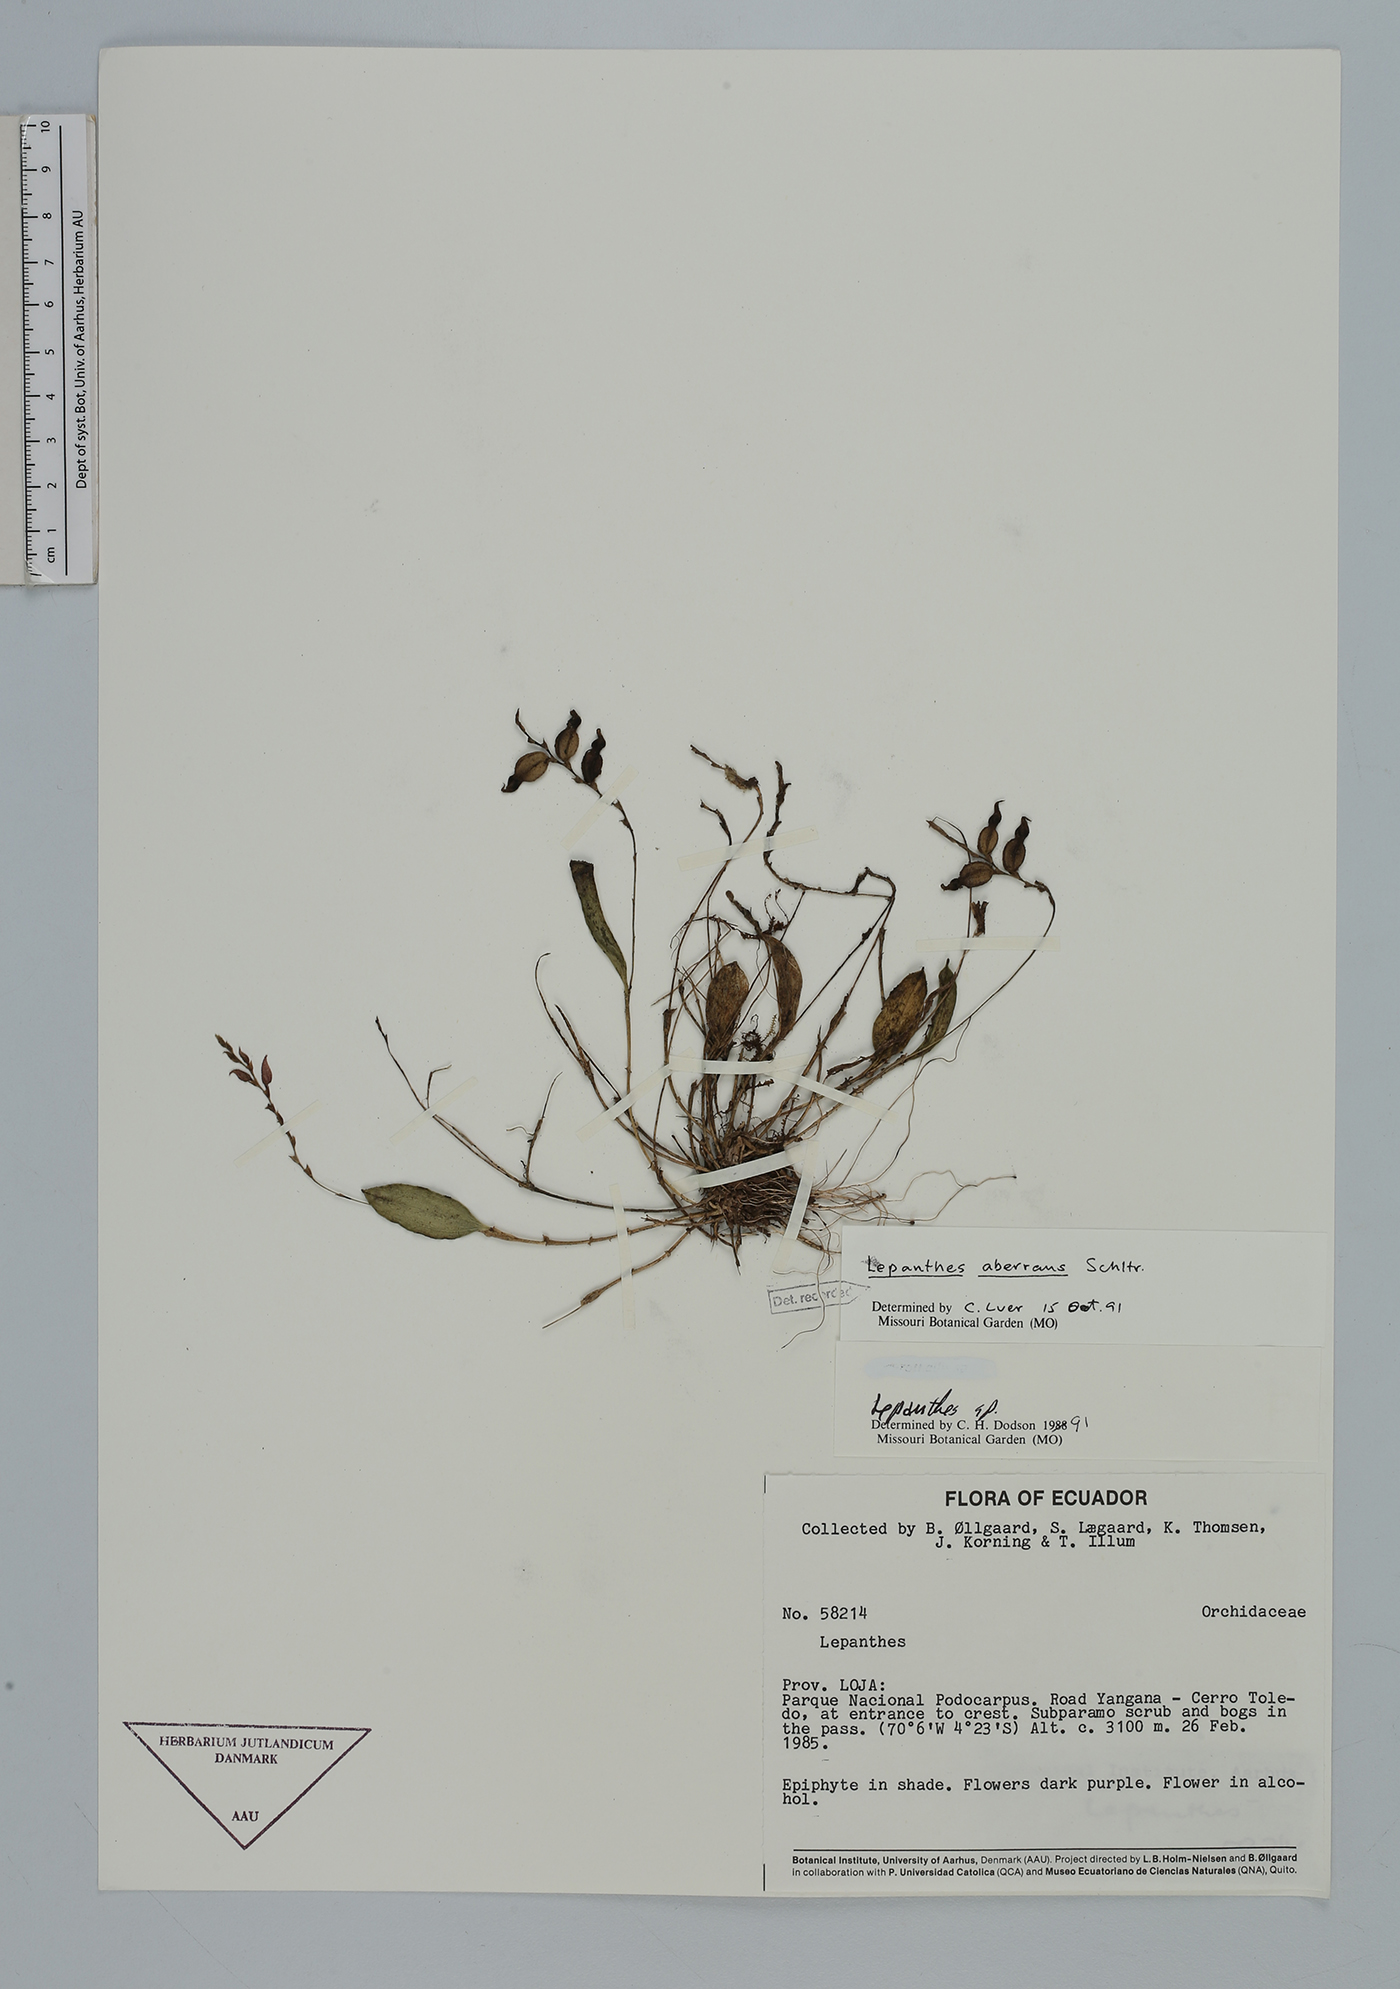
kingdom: Plantae
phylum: Tracheophyta
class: Liliopsida
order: Asparagales
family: Orchidaceae
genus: Draconanthes
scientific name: Draconanthes aberrans
